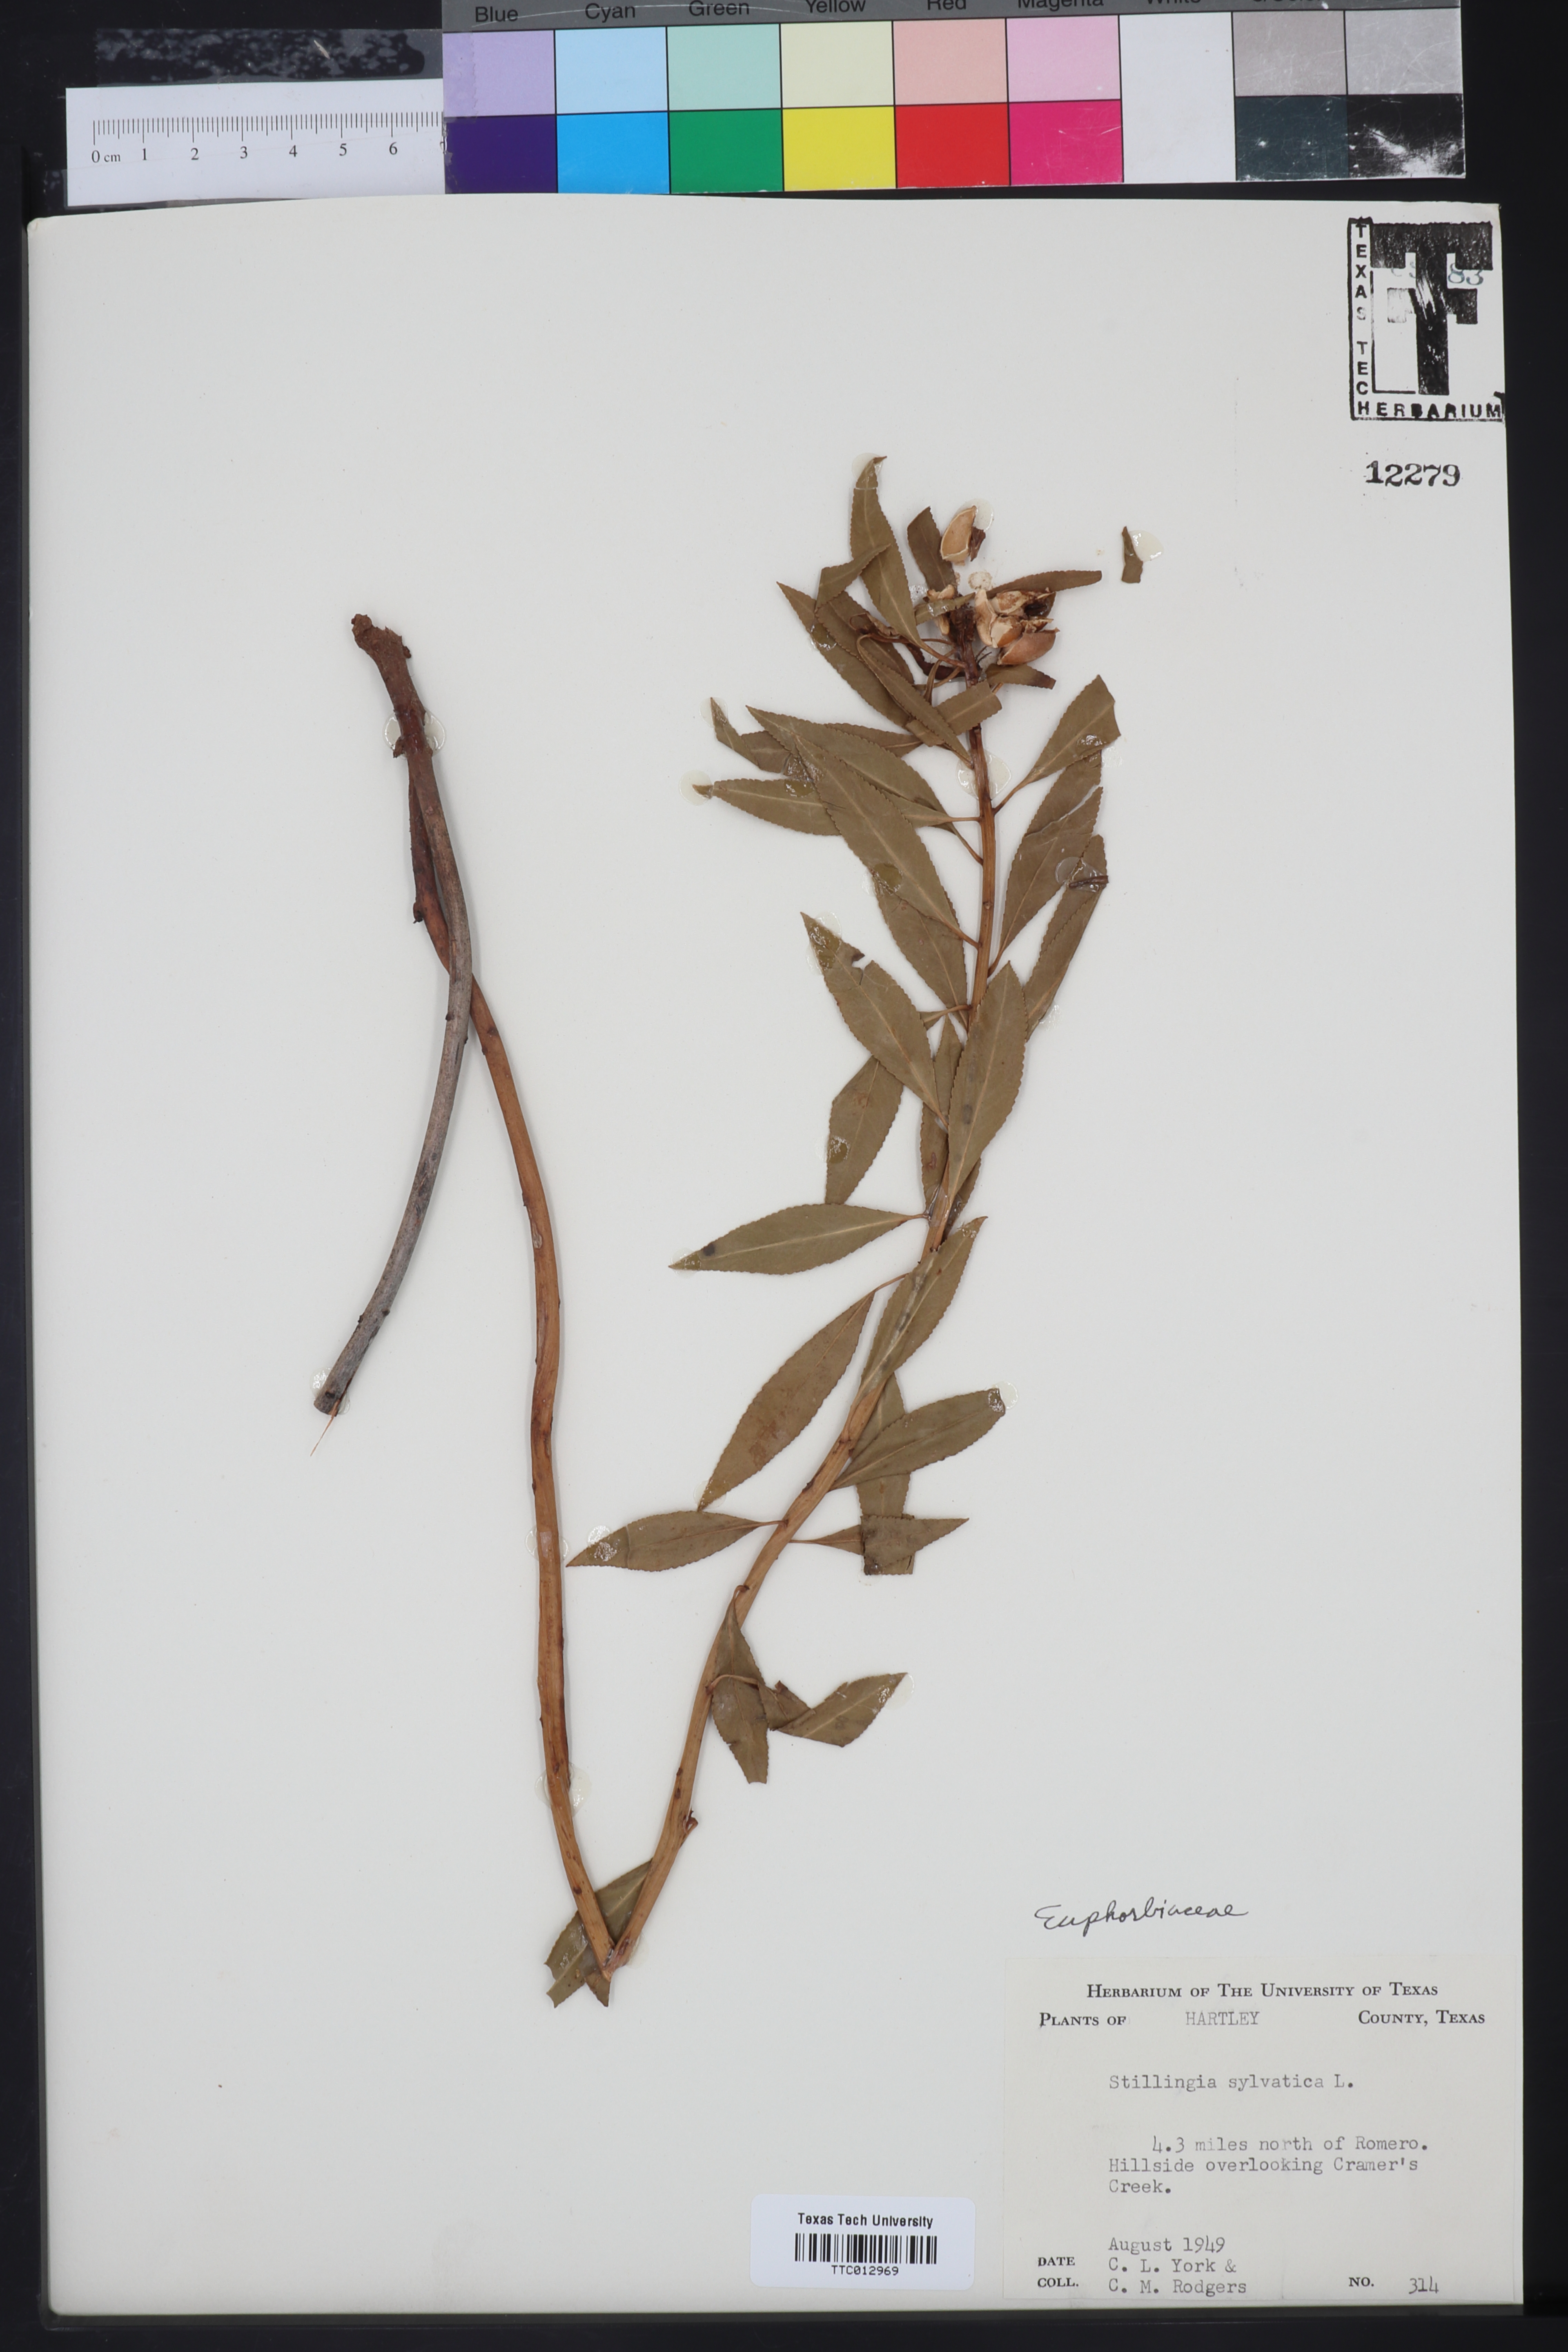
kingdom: Plantae
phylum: Tracheophyta
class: Magnoliopsida
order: Malpighiales
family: Euphorbiaceae
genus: Stillingia
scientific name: Stillingia sylvatica
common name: Queen's-delight
